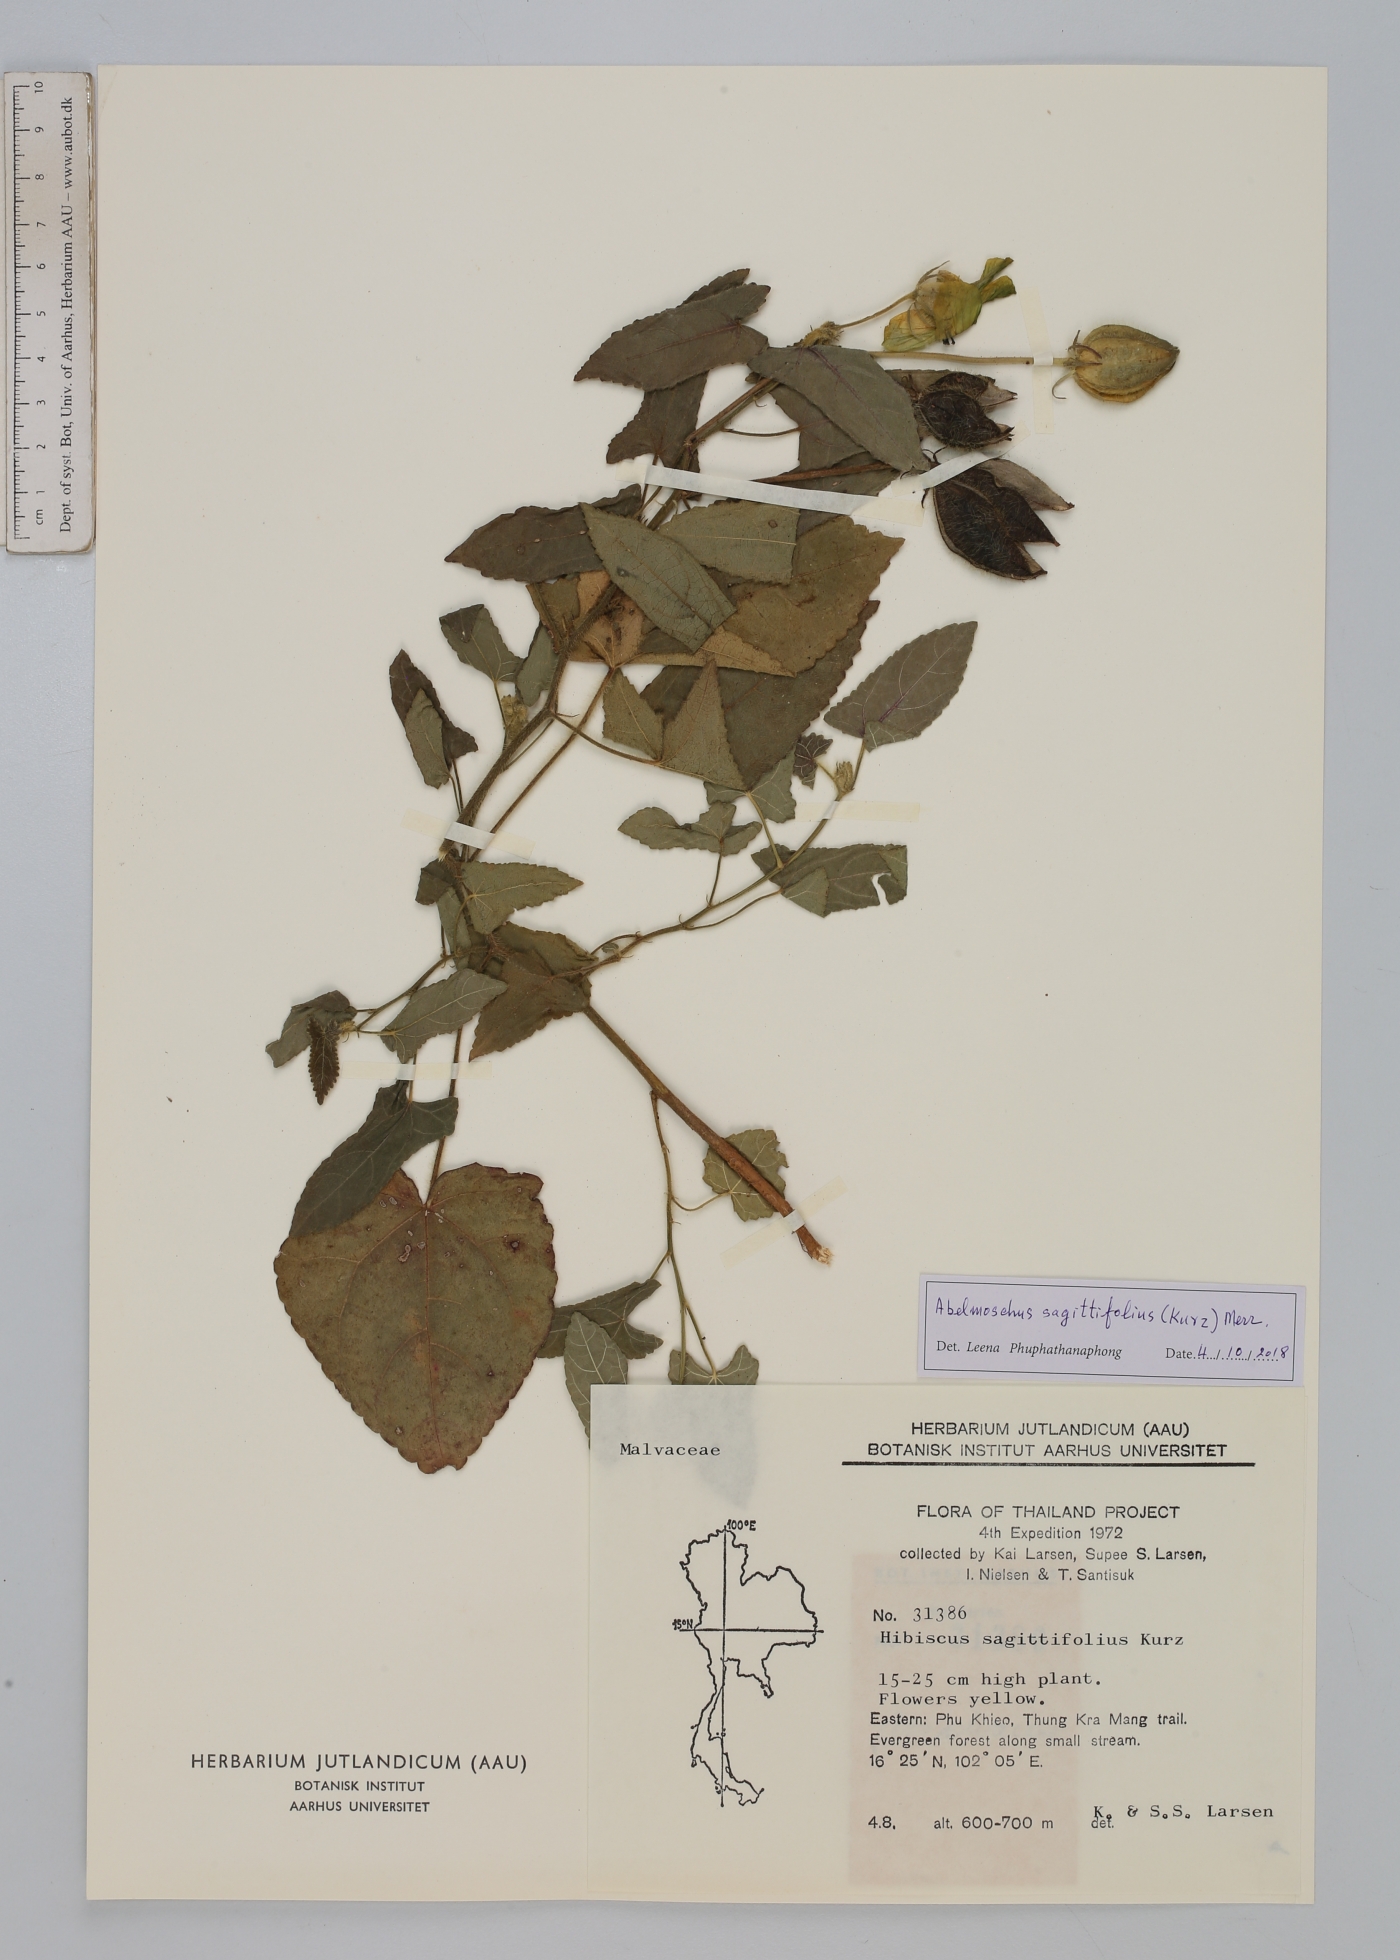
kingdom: Plantae
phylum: Tracheophyta
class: Magnoliopsida
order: Malvales
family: Malvaceae
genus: Abelmoschus
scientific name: Abelmoschus sagittifolius
